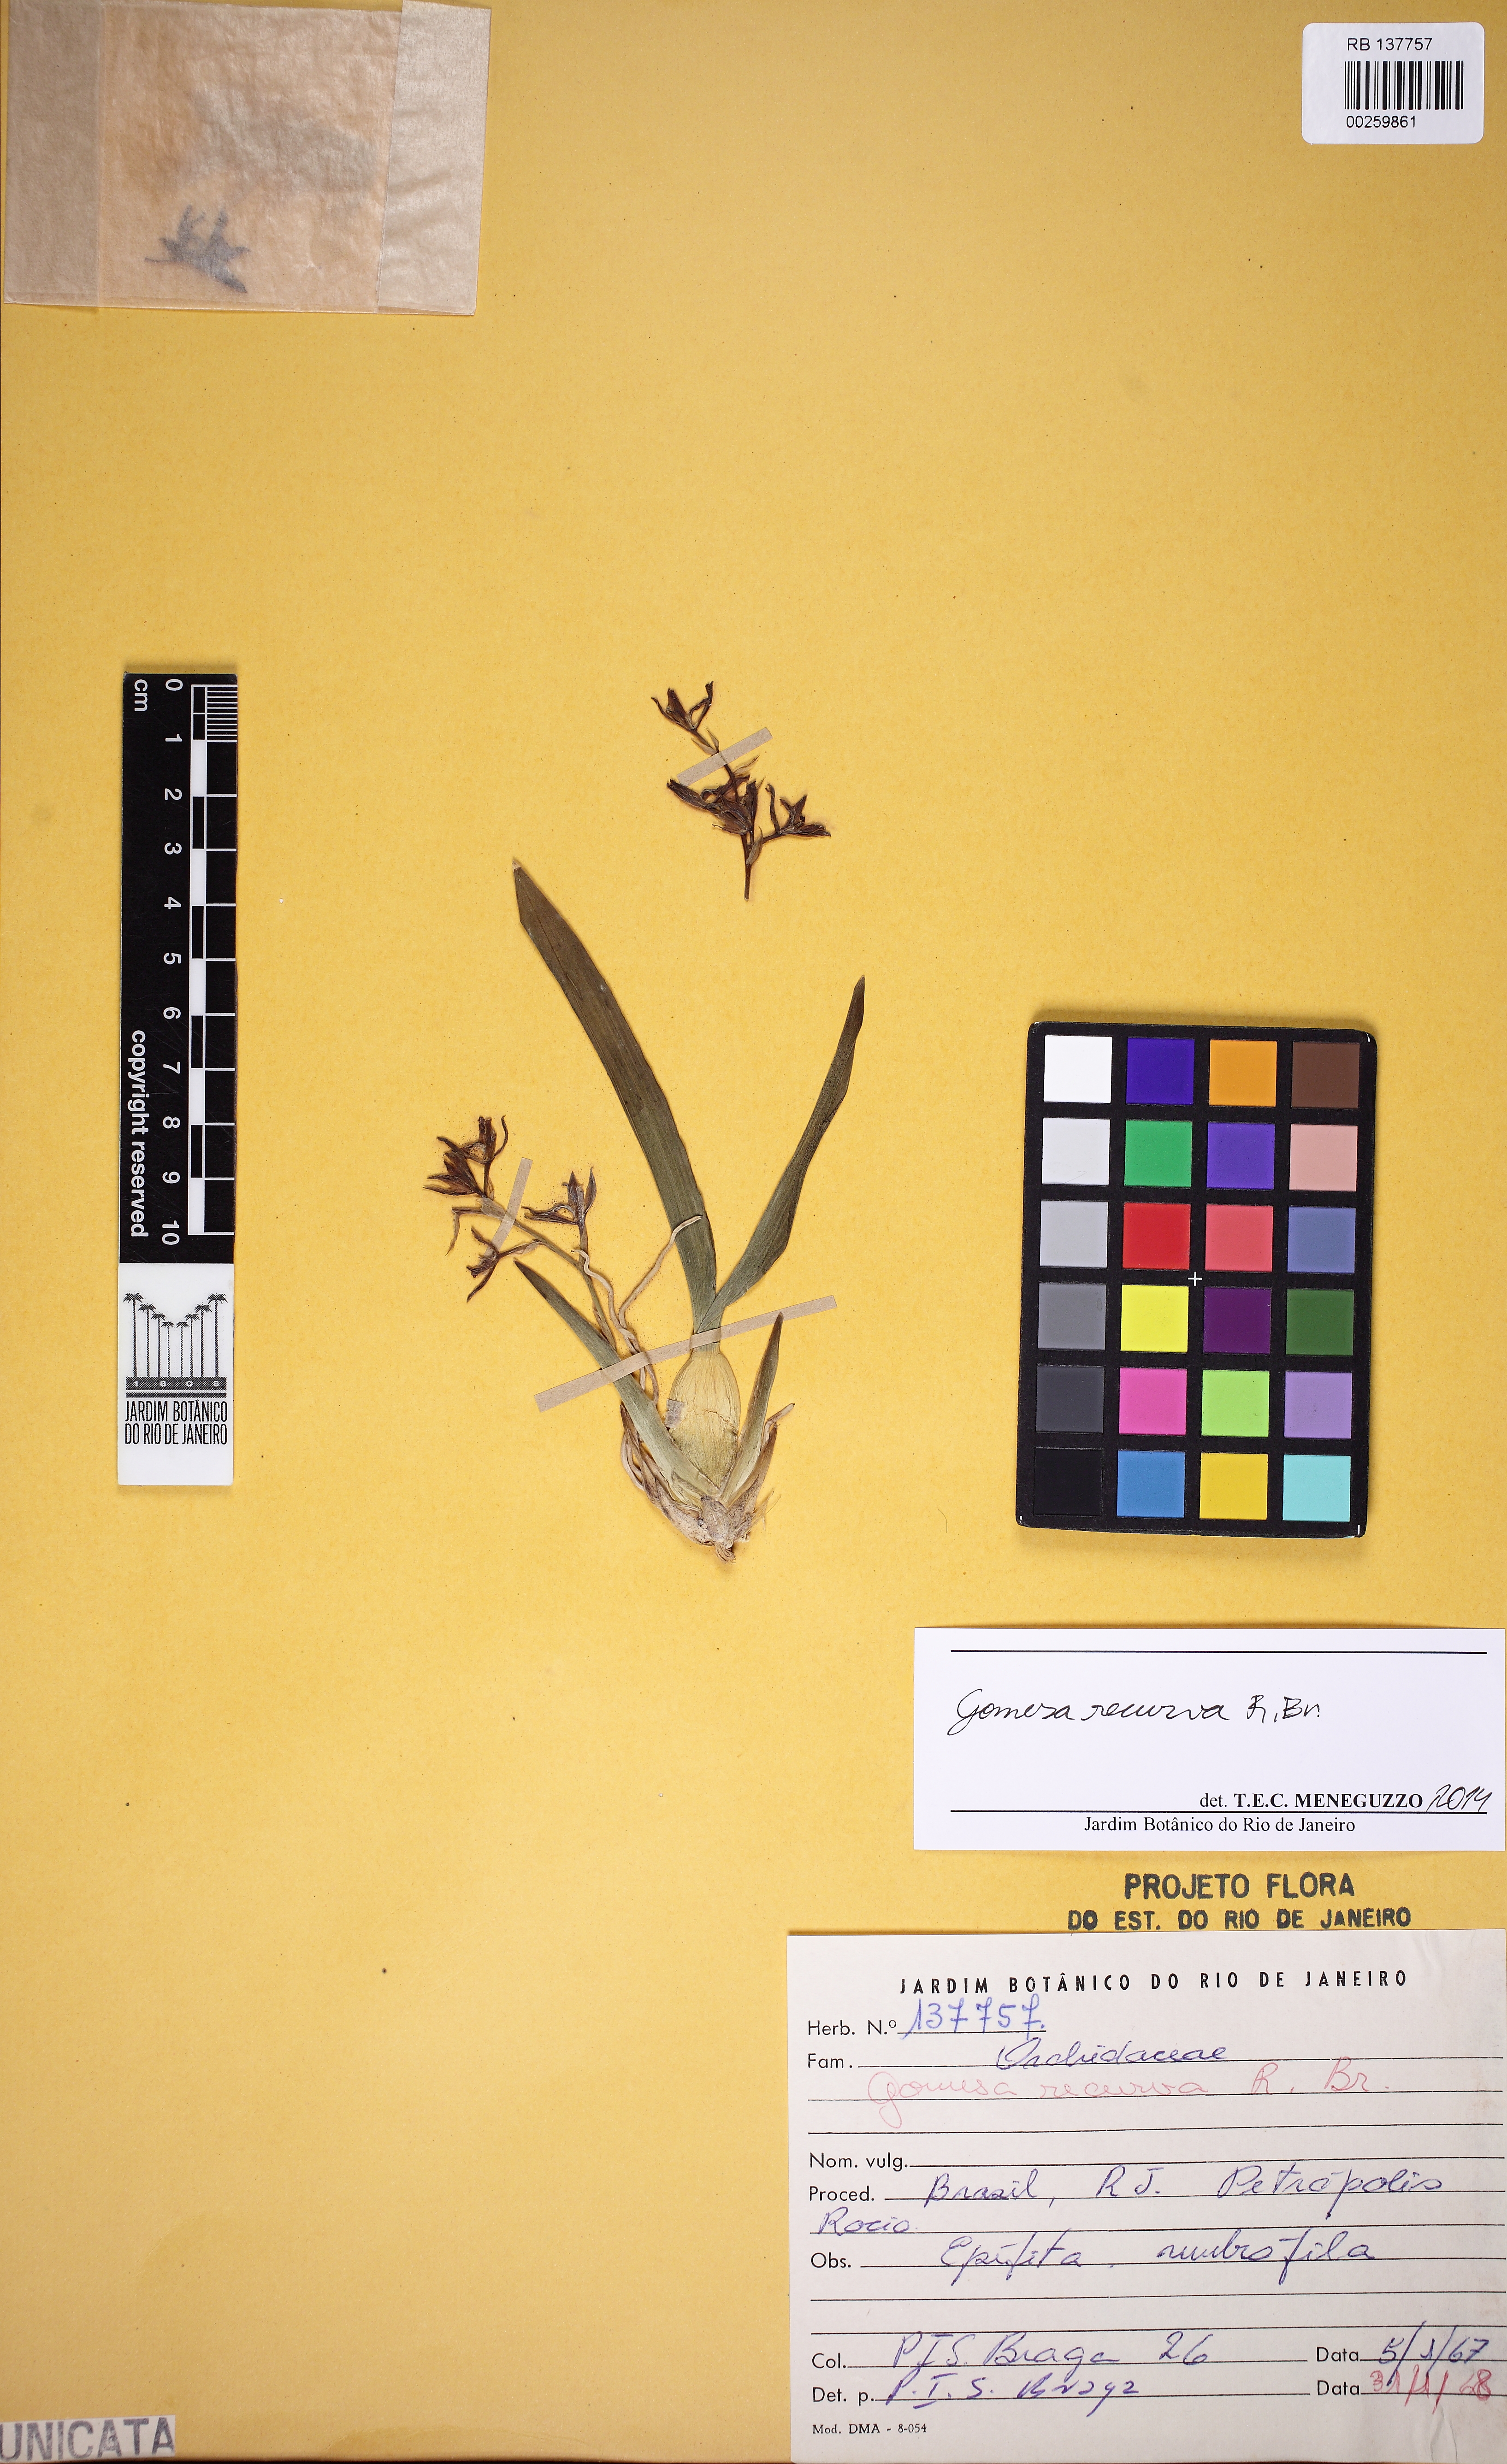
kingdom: Plantae
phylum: Tracheophyta
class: Liliopsida
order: Asparagales
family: Orchidaceae
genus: Gomesa
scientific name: Gomesa recurva
